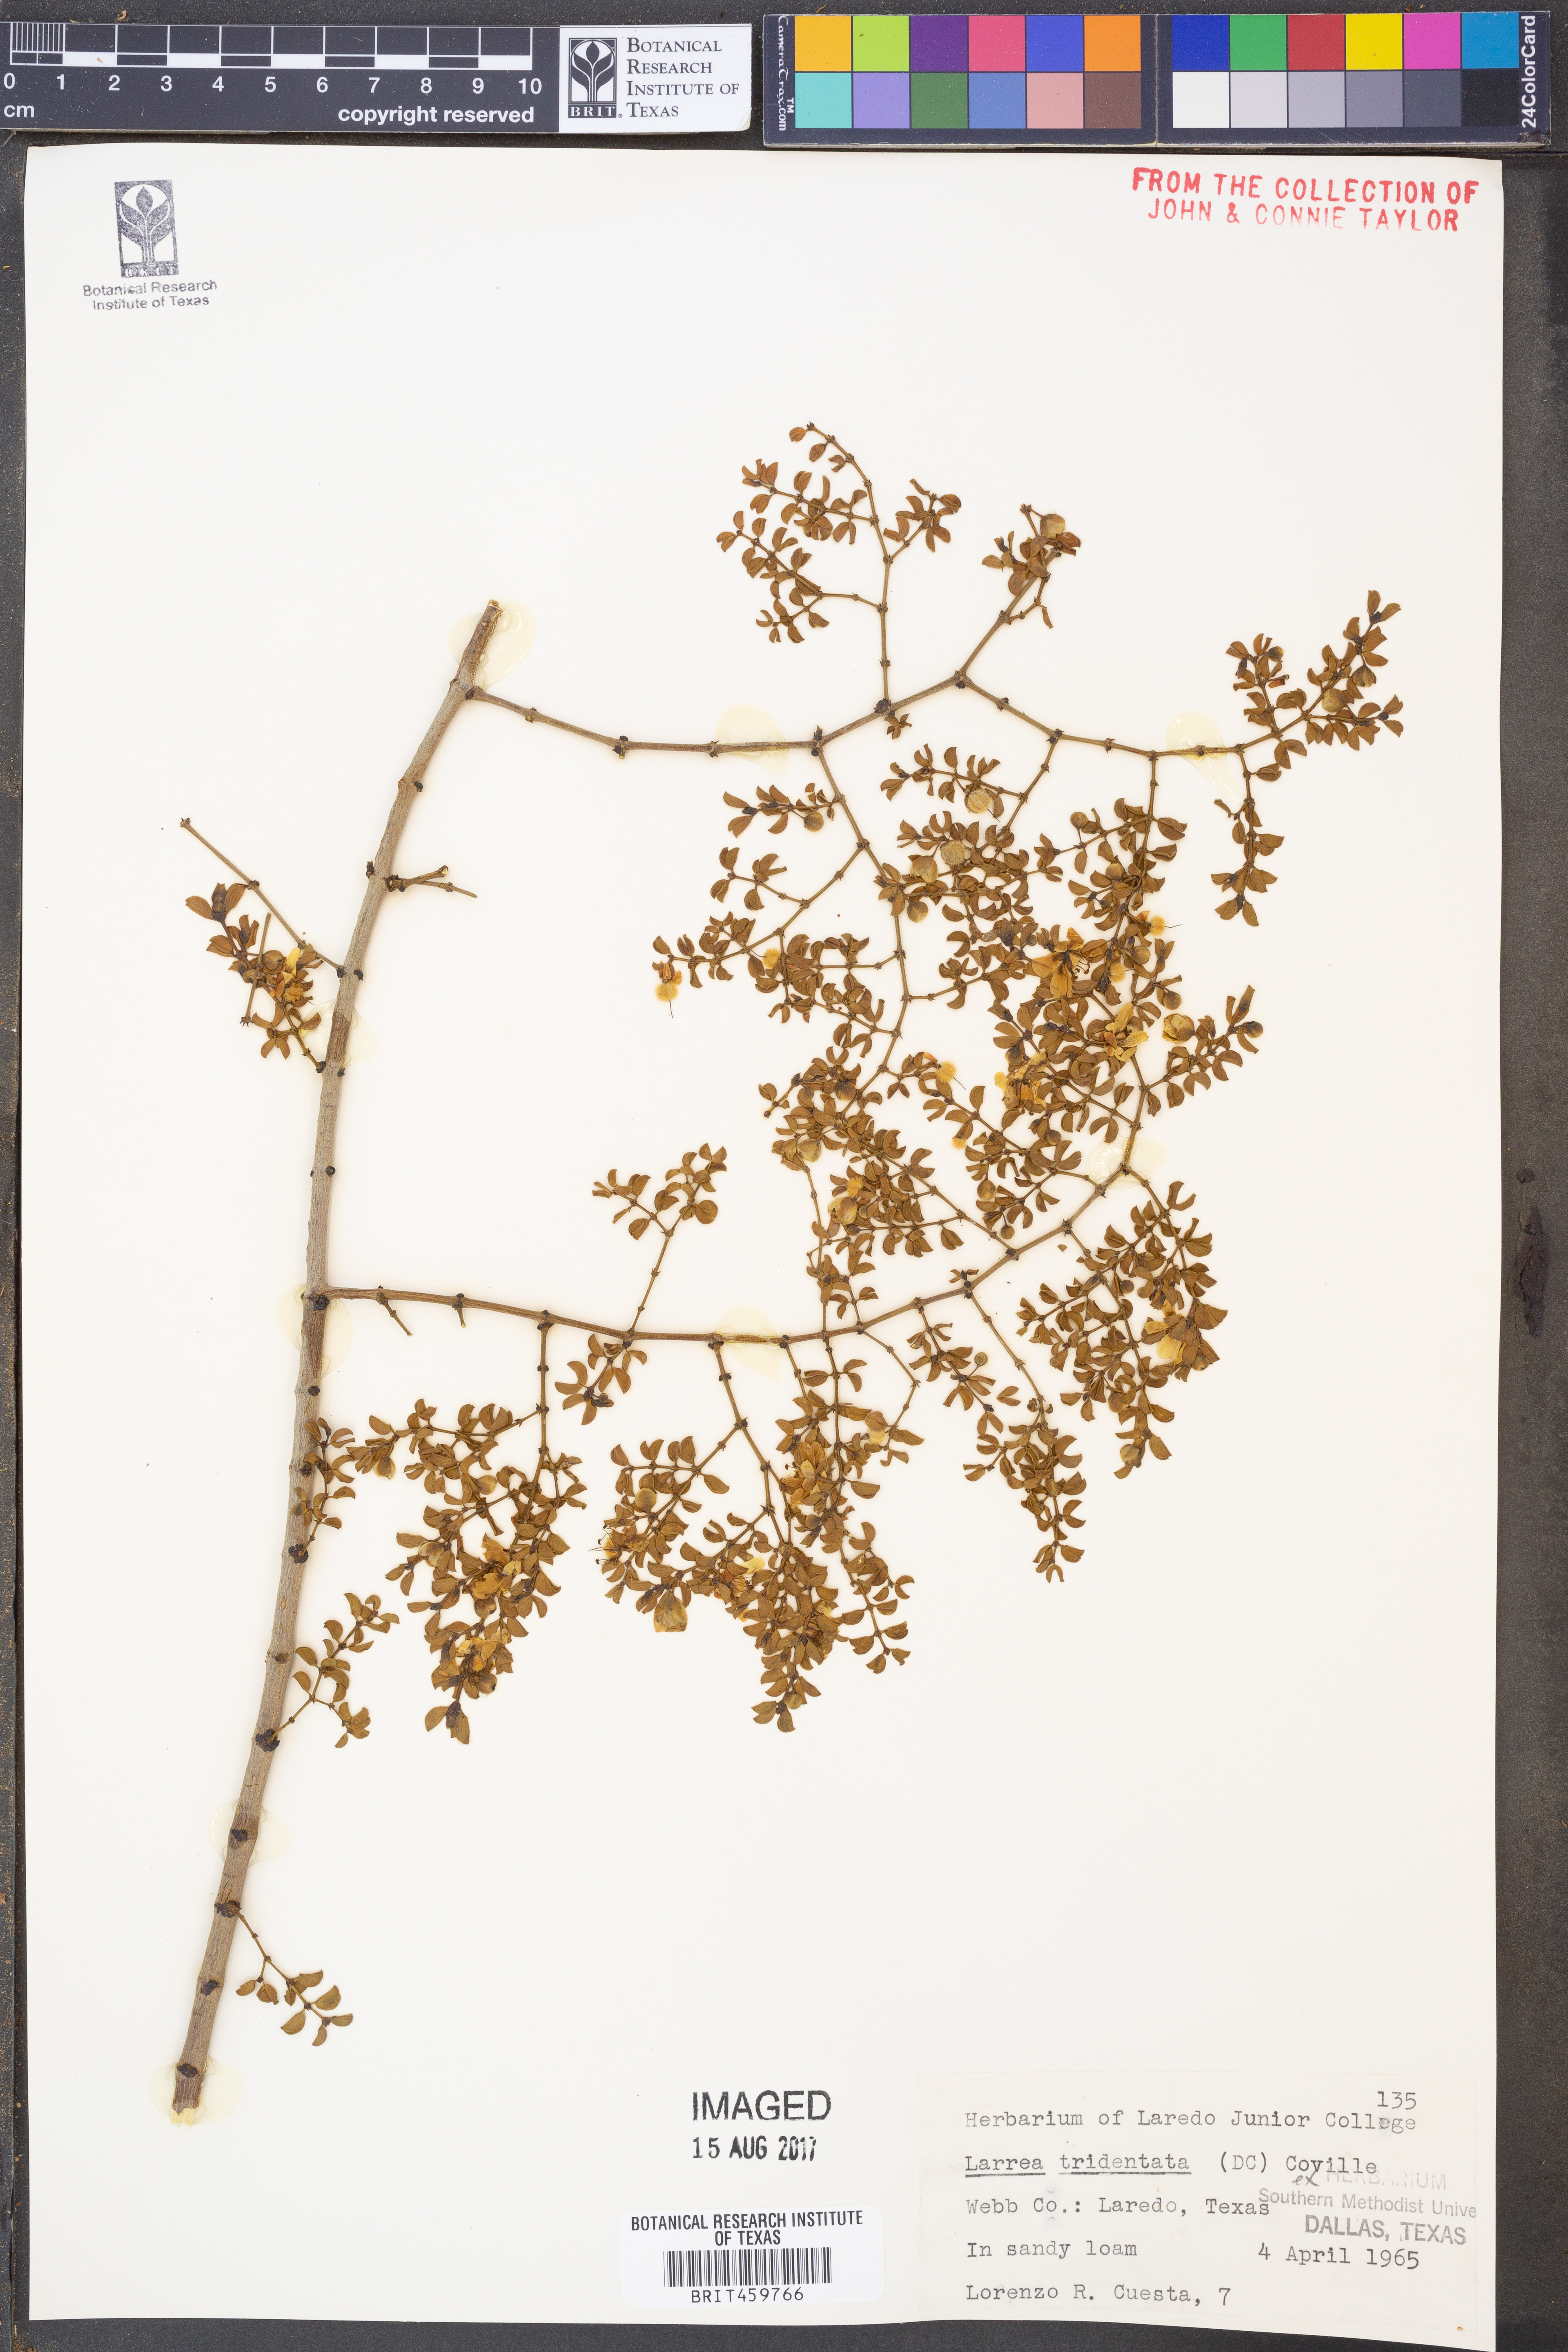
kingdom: Plantae
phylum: Tracheophyta
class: Magnoliopsida
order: Zygophyllales
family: Zygophyllaceae
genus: Larrea
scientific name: Larrea tridentata
